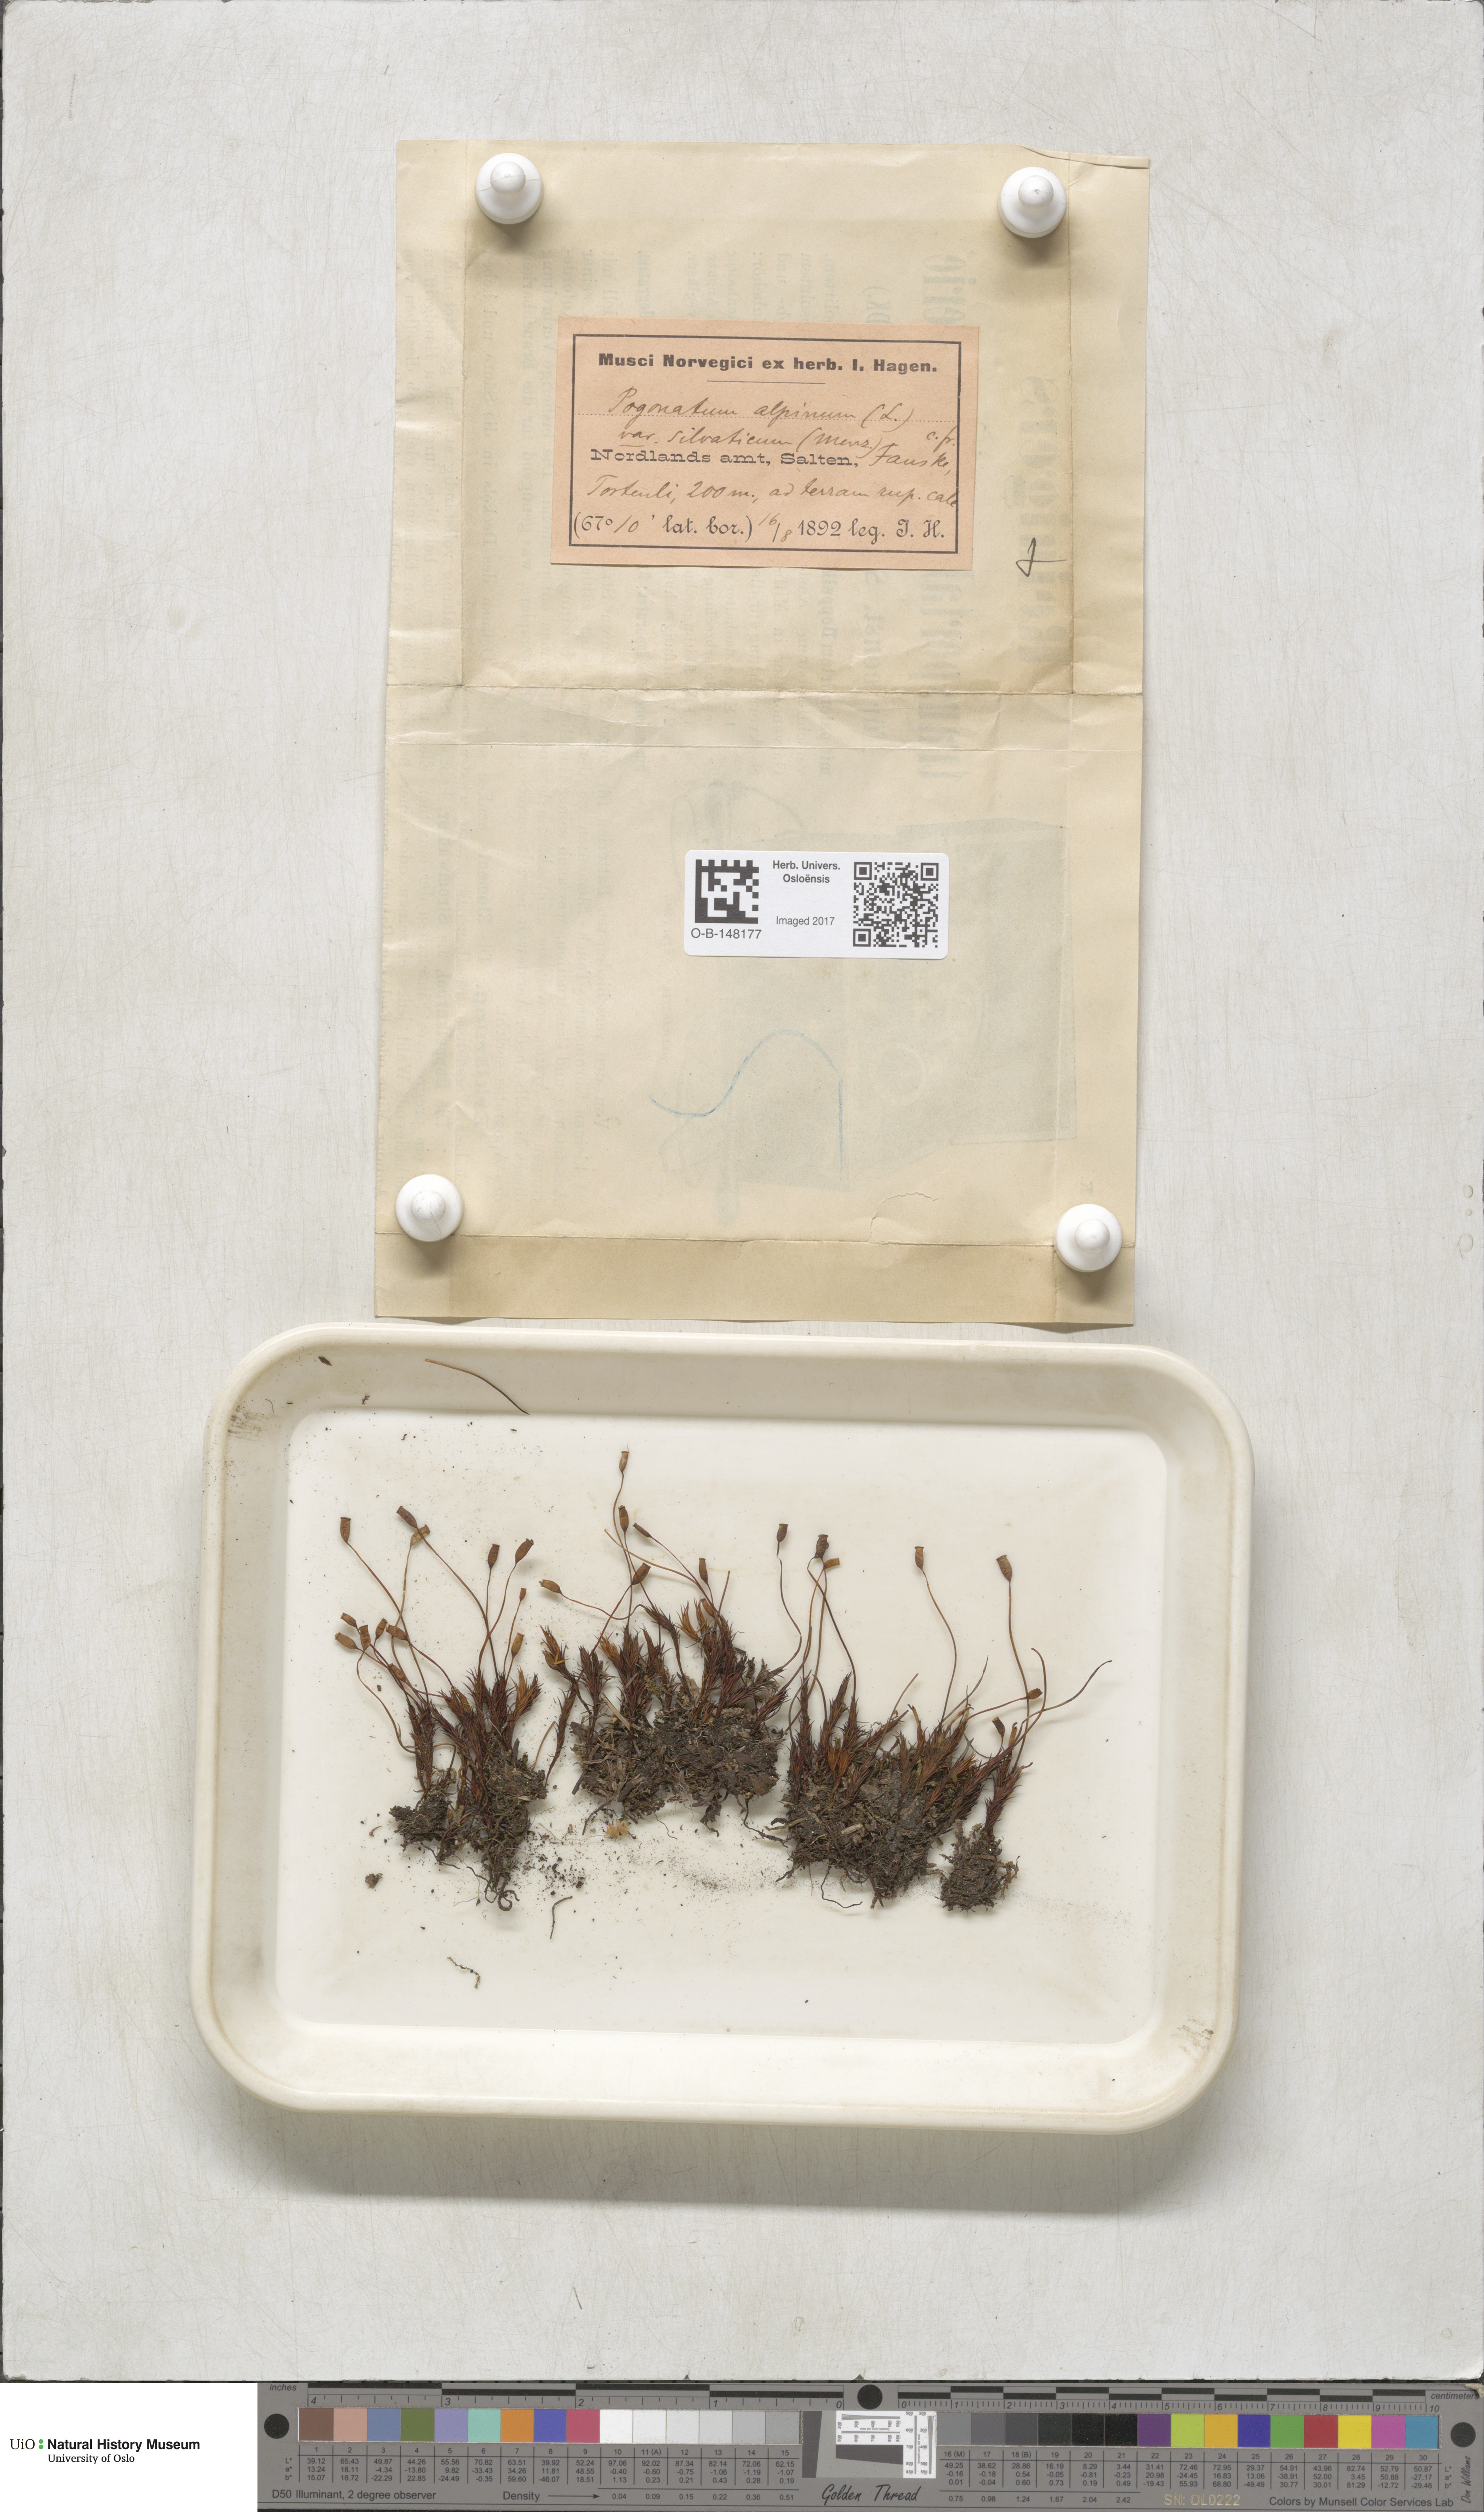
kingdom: Plantae
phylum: Bryophyta
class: Polytrichopsida
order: Polytrichales
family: Polytrichaceae
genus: Polytrichastrum
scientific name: Polytrichastrum alpinum
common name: Alpine haircap
